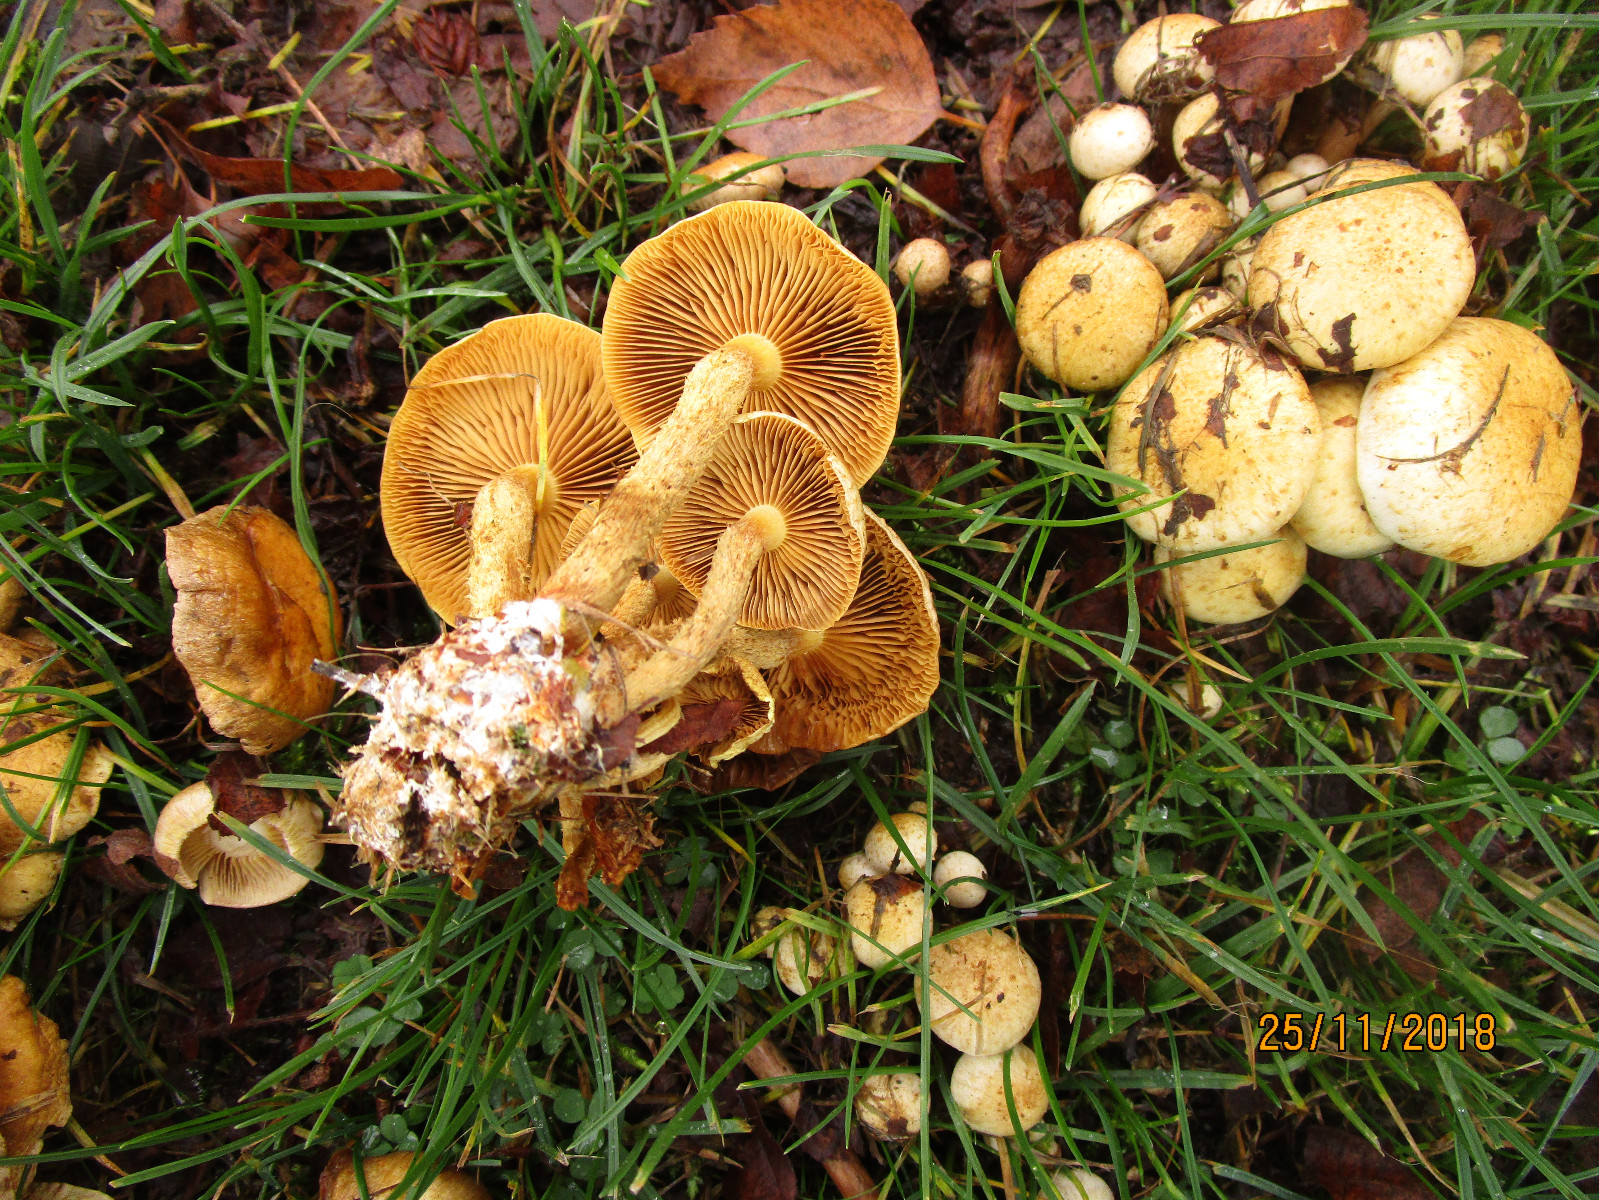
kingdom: Fungi
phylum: Basidiomycota
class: Agaricomycetes
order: Agaricales
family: Strophariaceae
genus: Pholiota
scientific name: Pholiota gummosa
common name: grøngul skælhat
